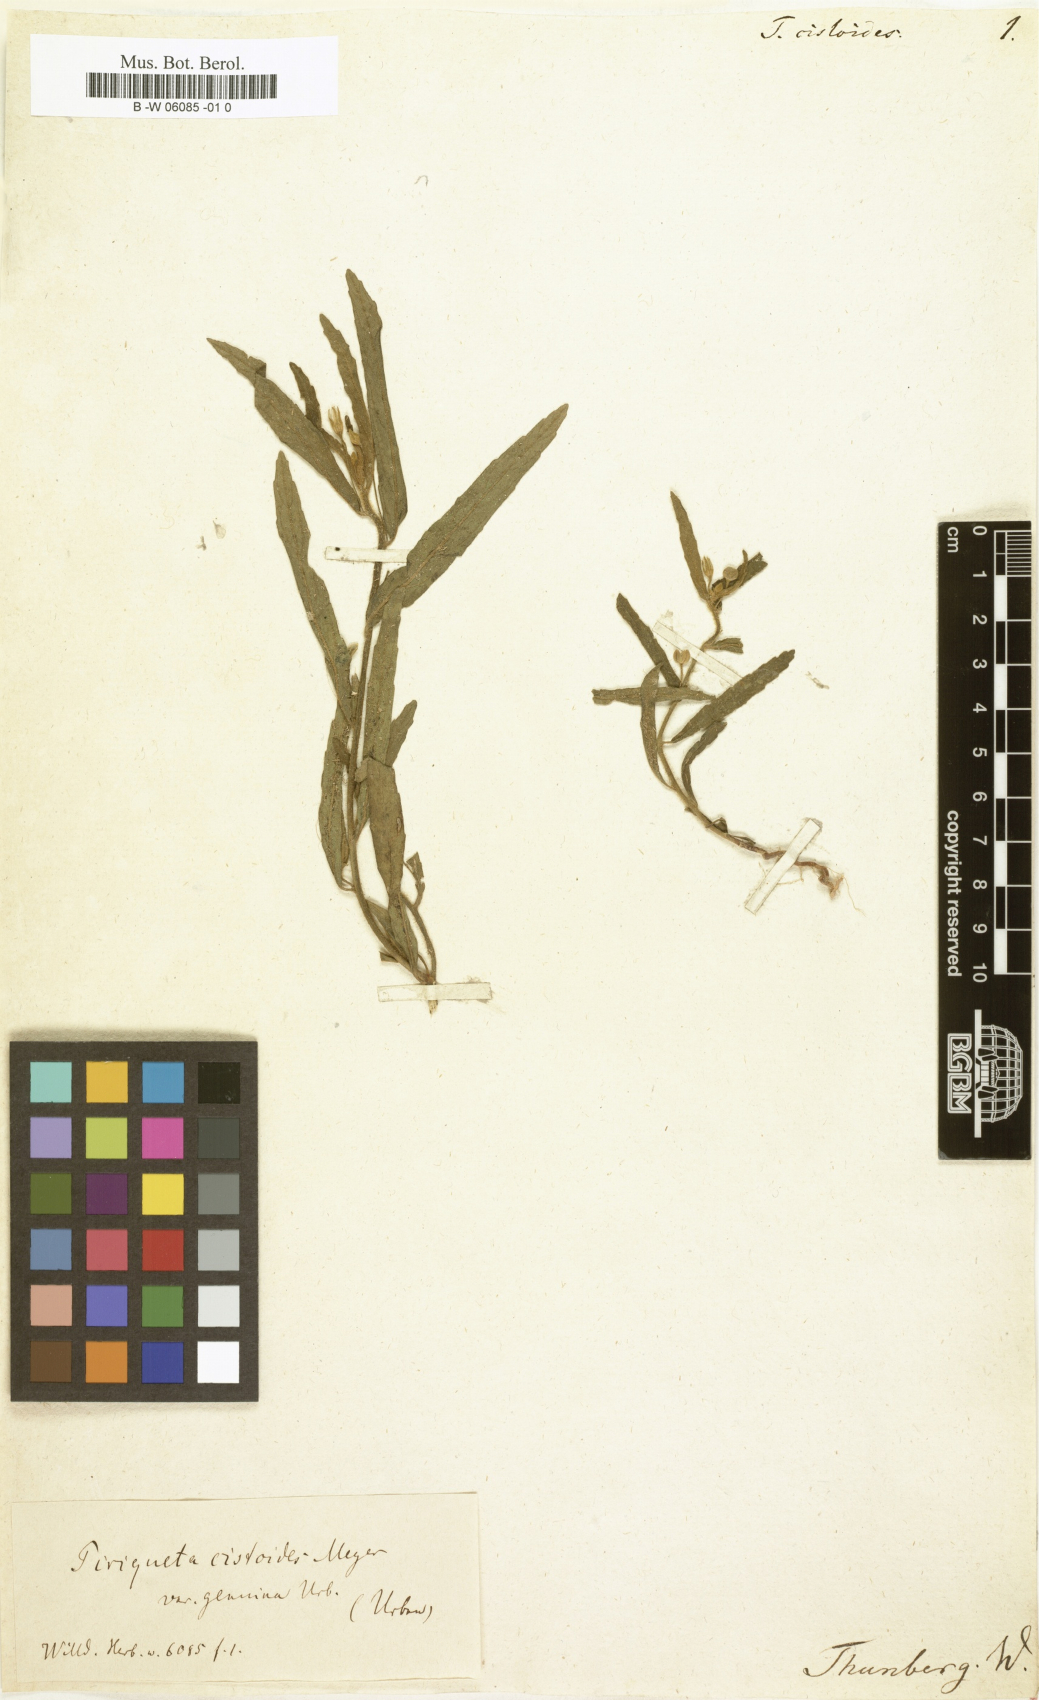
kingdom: Plantae
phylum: Tracheophyta
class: Magnoliopsida
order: Malpighiales
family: Turneraceae
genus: Piriqueta
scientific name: Piriqueta cistoides
